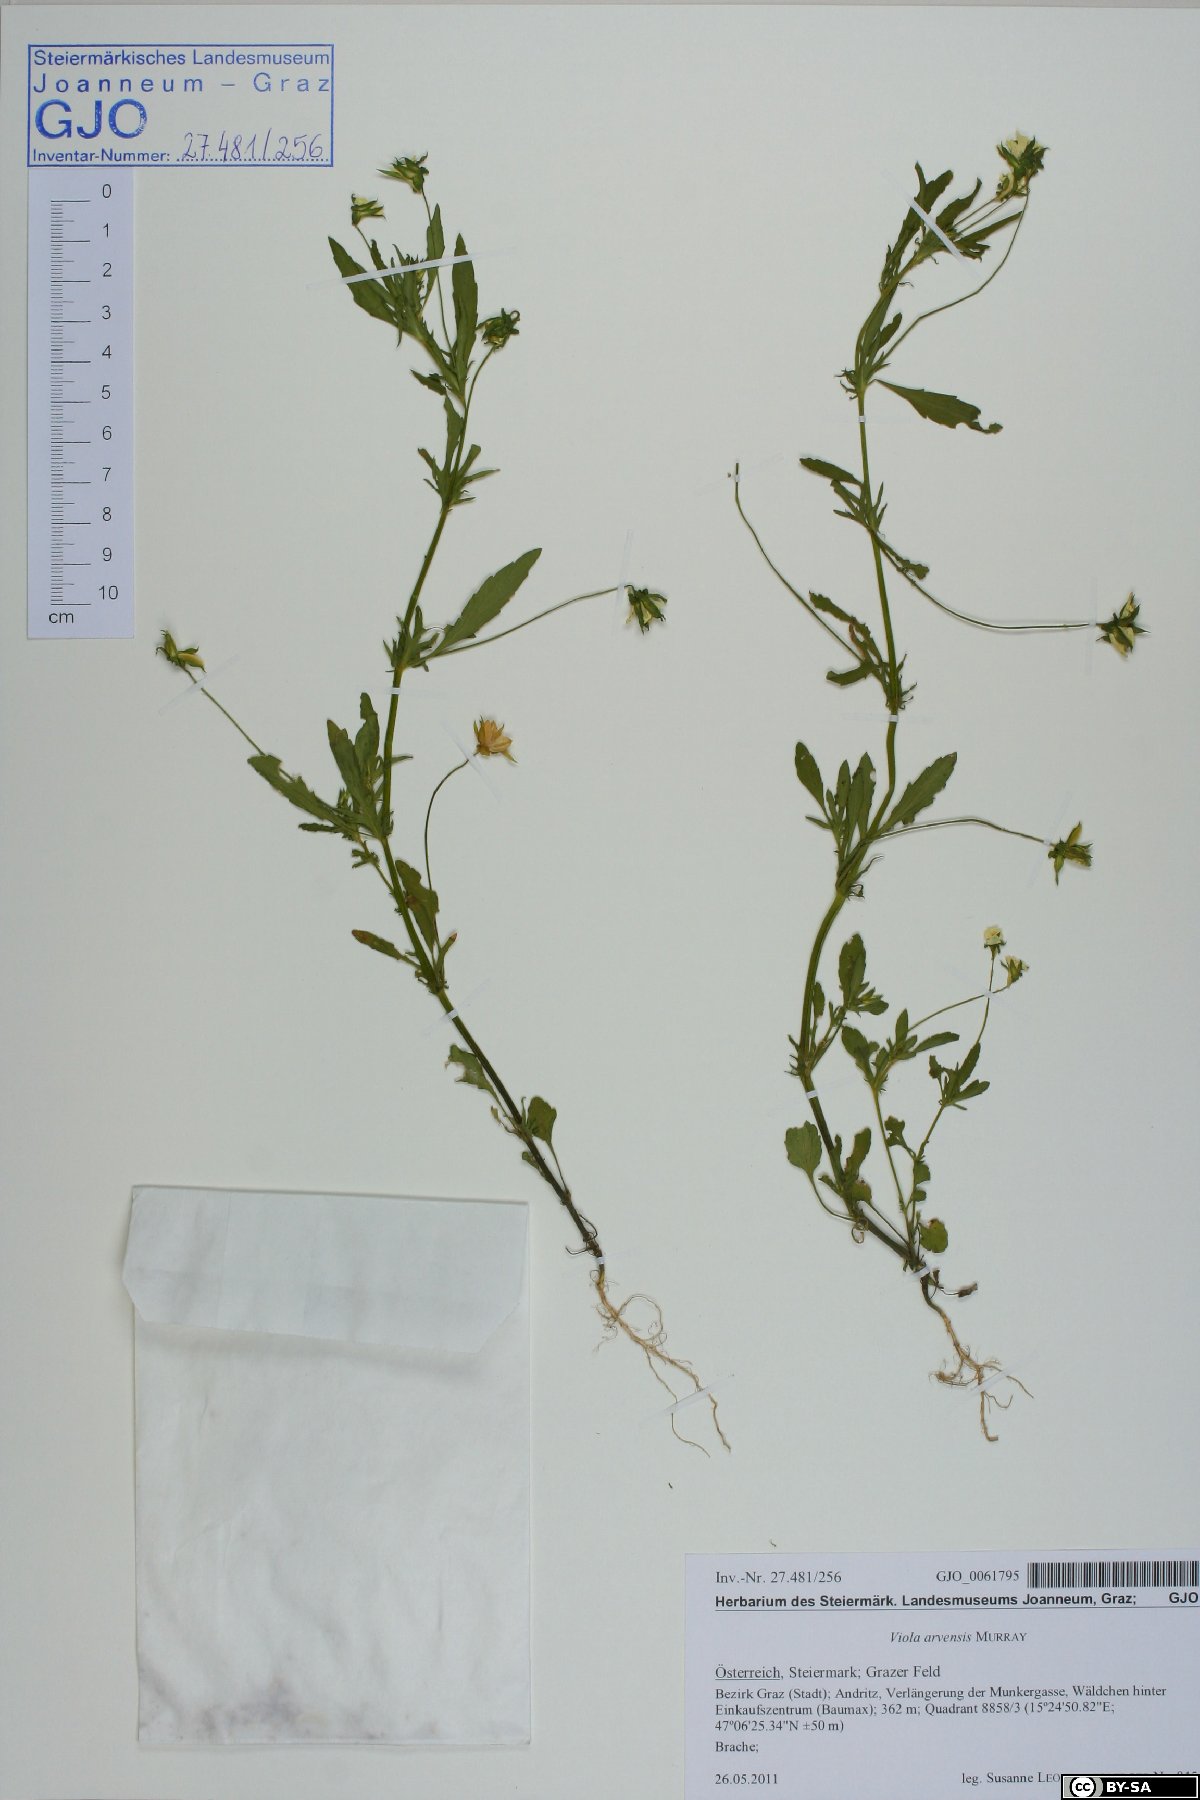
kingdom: Plantae
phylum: Tracheophyta
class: Magnoliopsida
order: Malpighiales
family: Violaceae
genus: Viola
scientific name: Viola arvensis
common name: Field pansy
